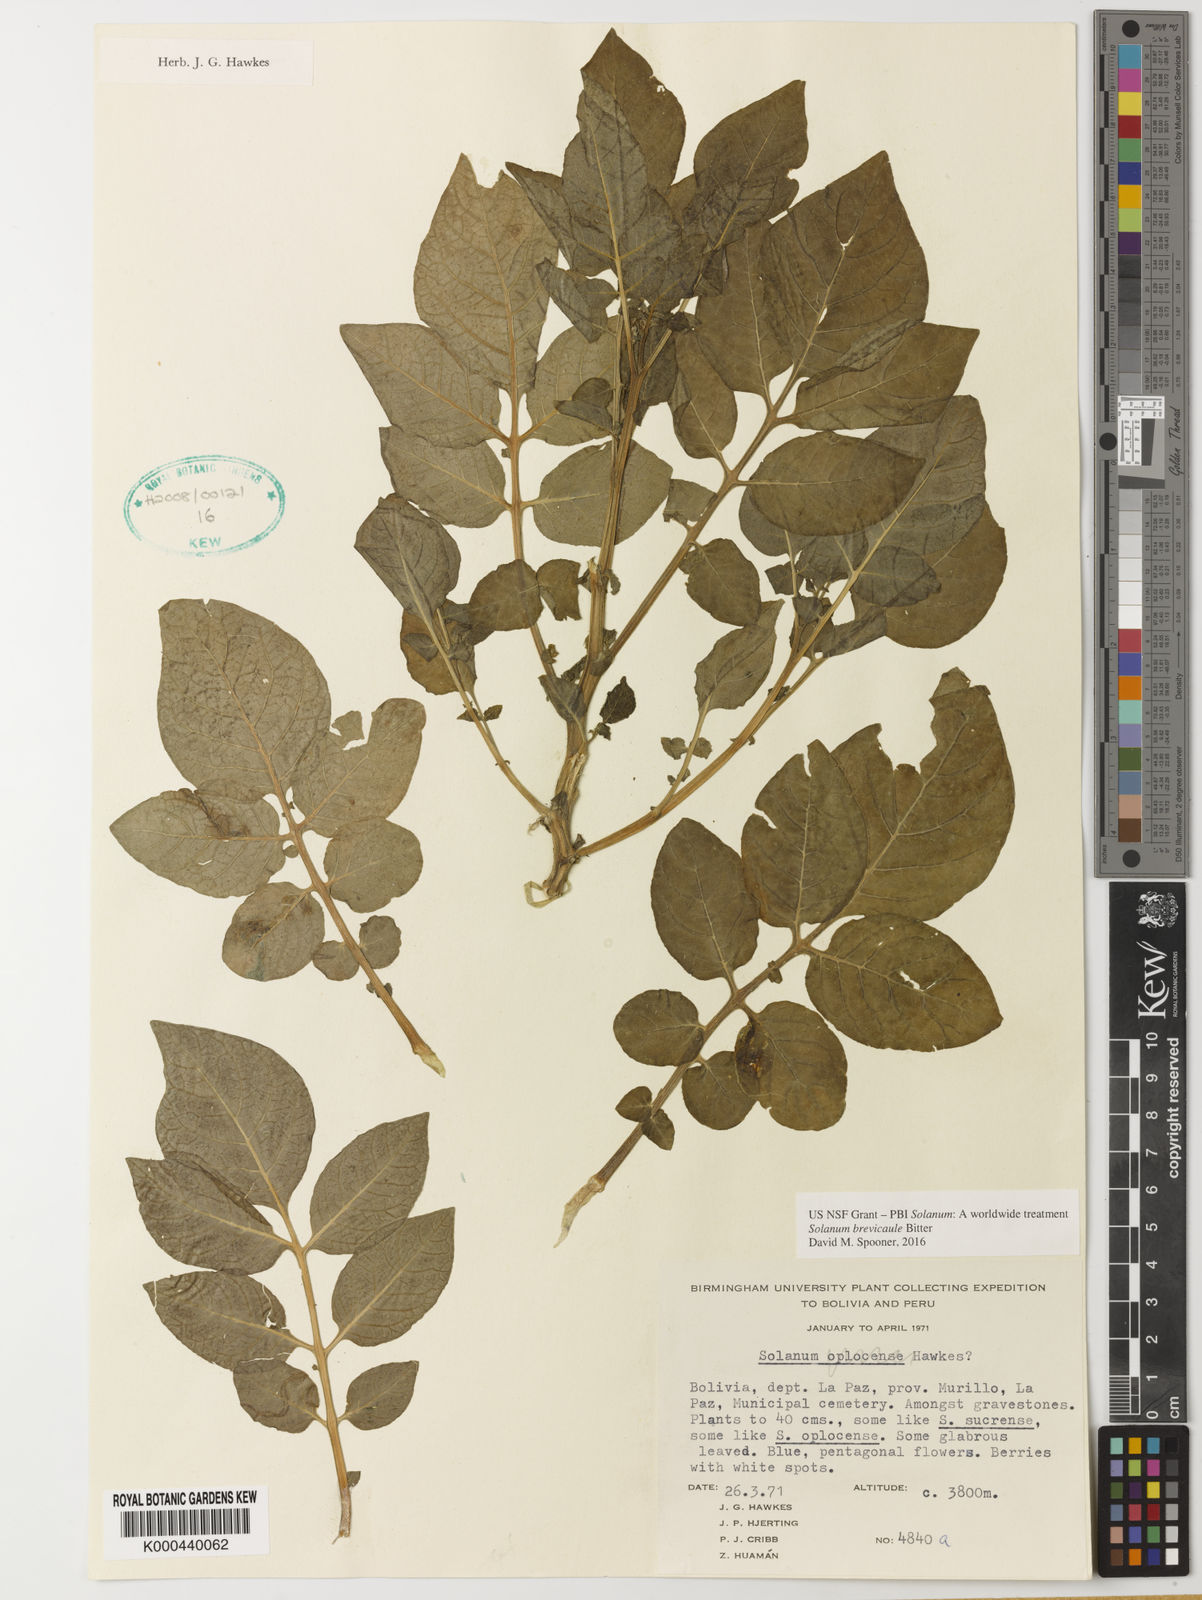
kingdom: Plantae
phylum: Tracheophyta
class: Magnoliopsida
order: Solanales
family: Solanaceae
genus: Solanum
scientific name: Solanum brevicaule
